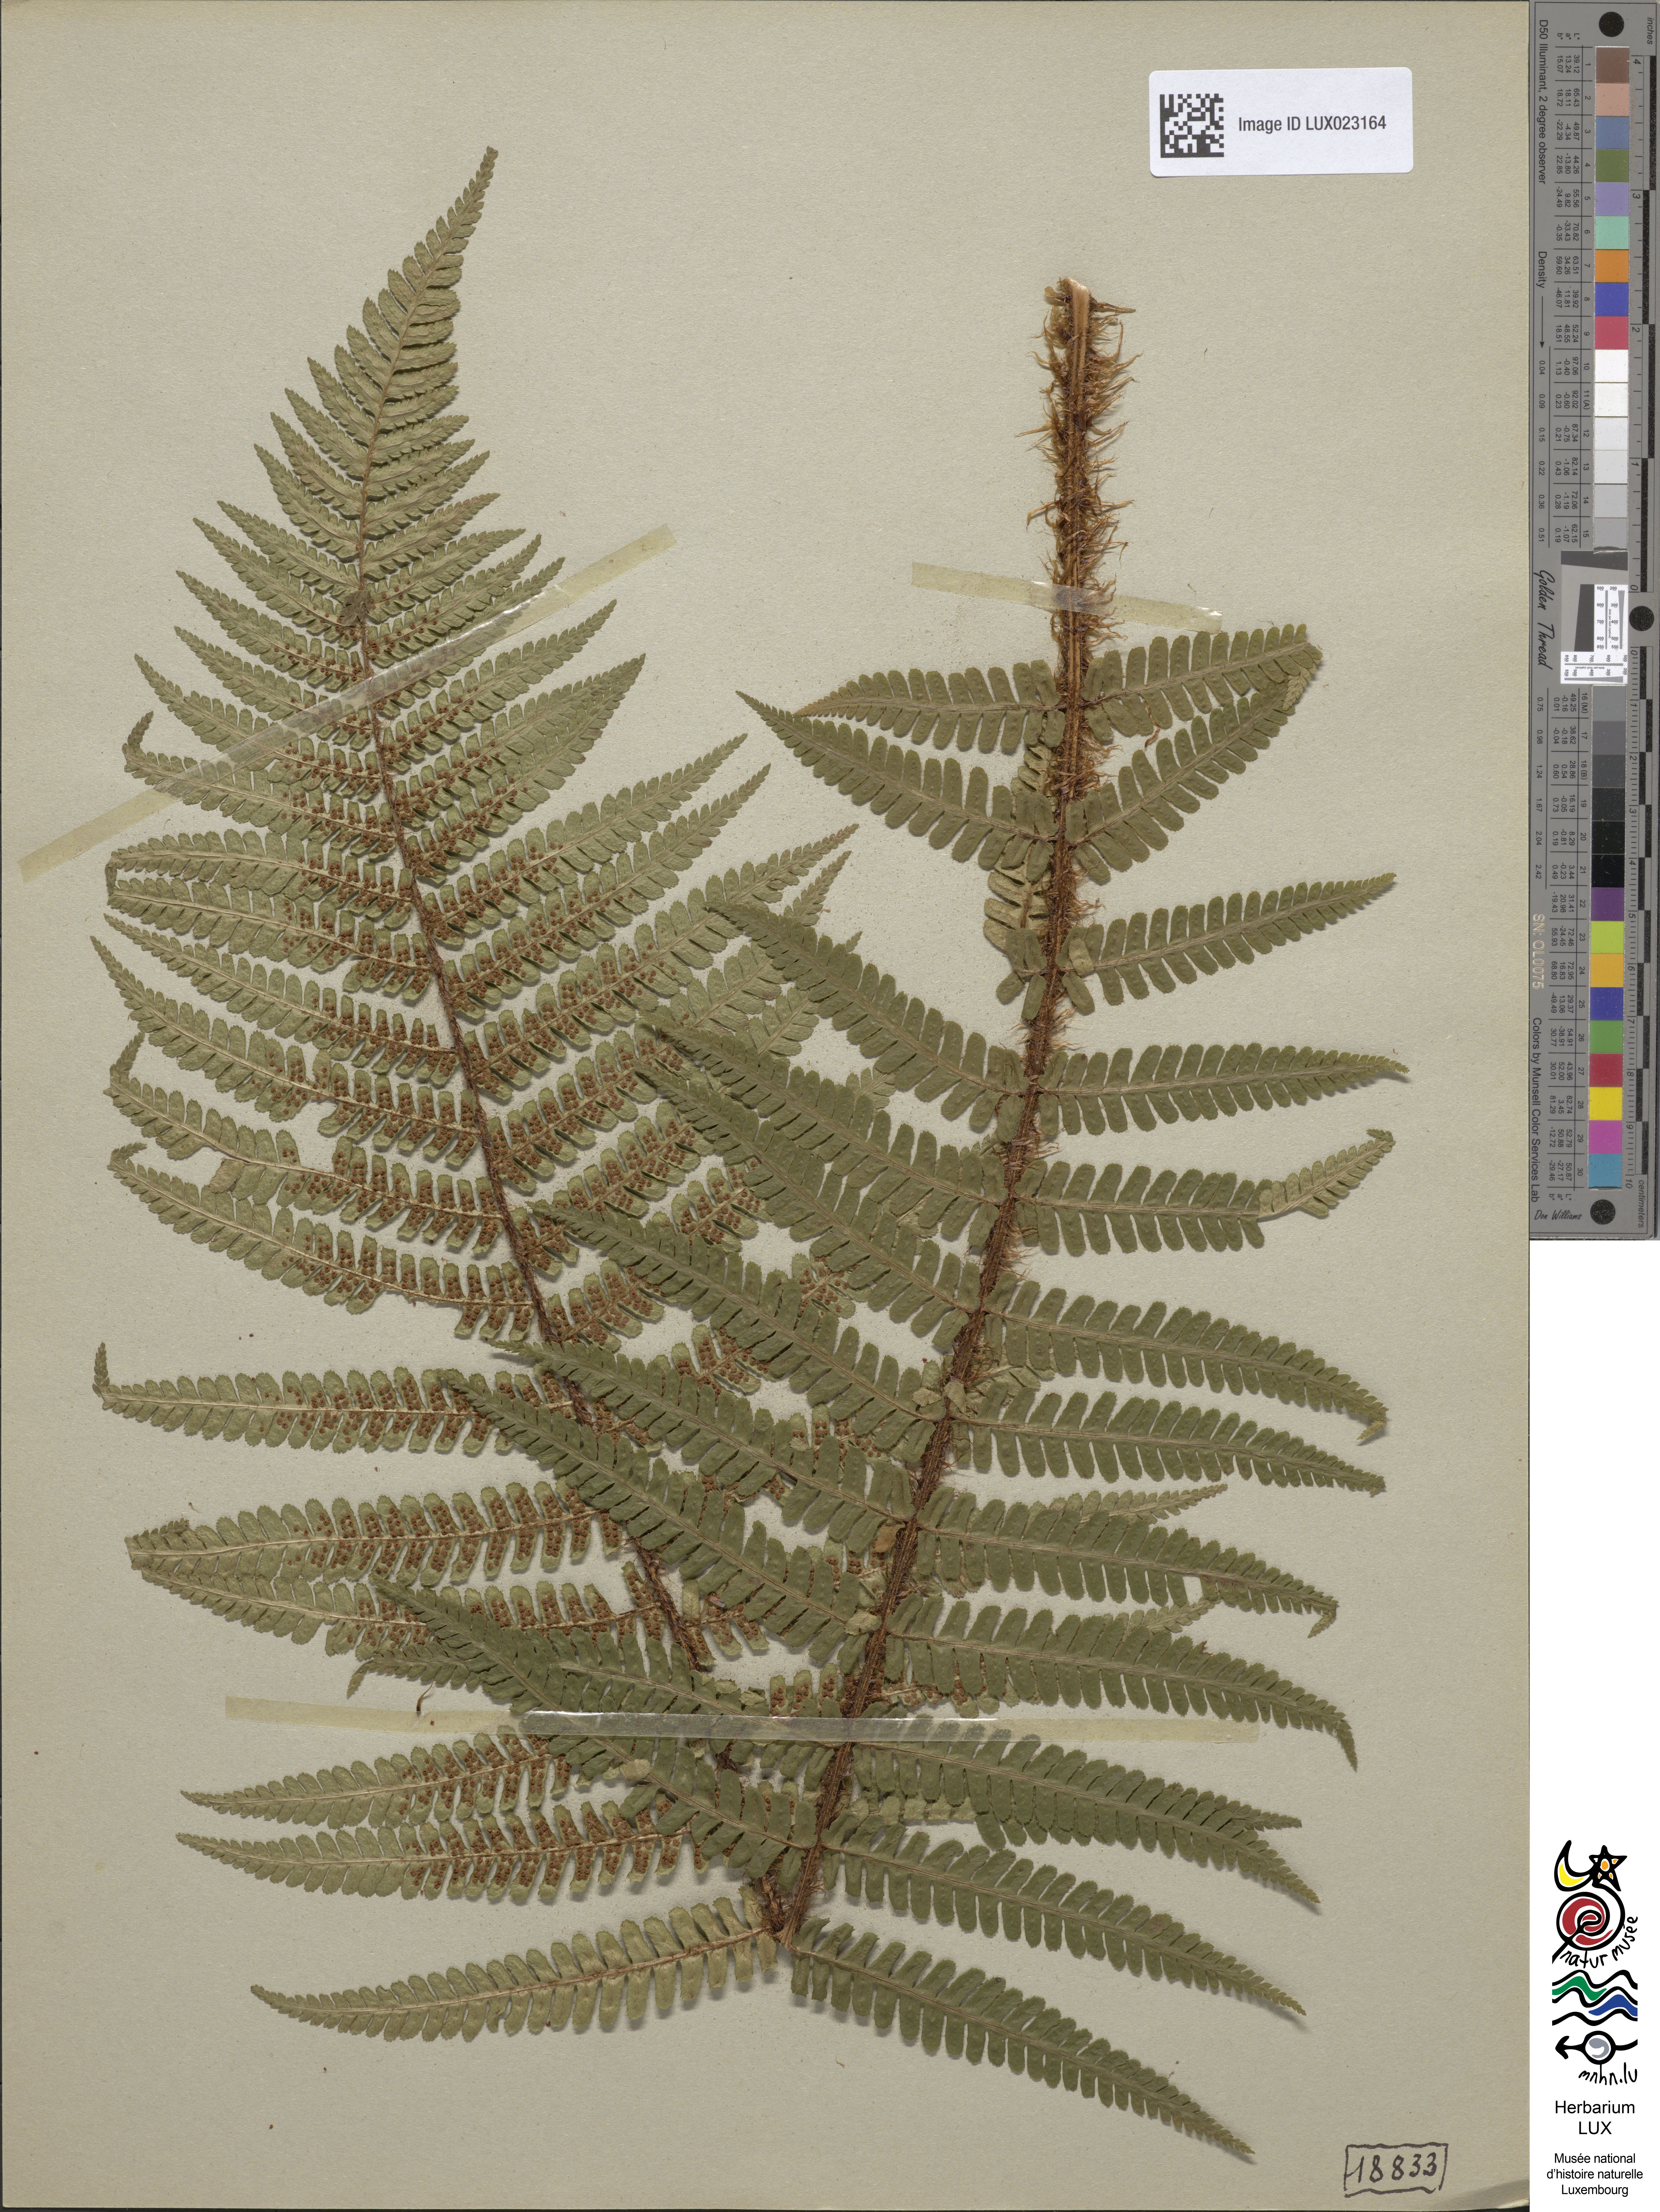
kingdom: Plantae
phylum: Tracheophyta
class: Polypodiopsida
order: Polypodiales
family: Dryopteridaceae
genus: Dryopteris
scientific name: Dryopteris borreri
